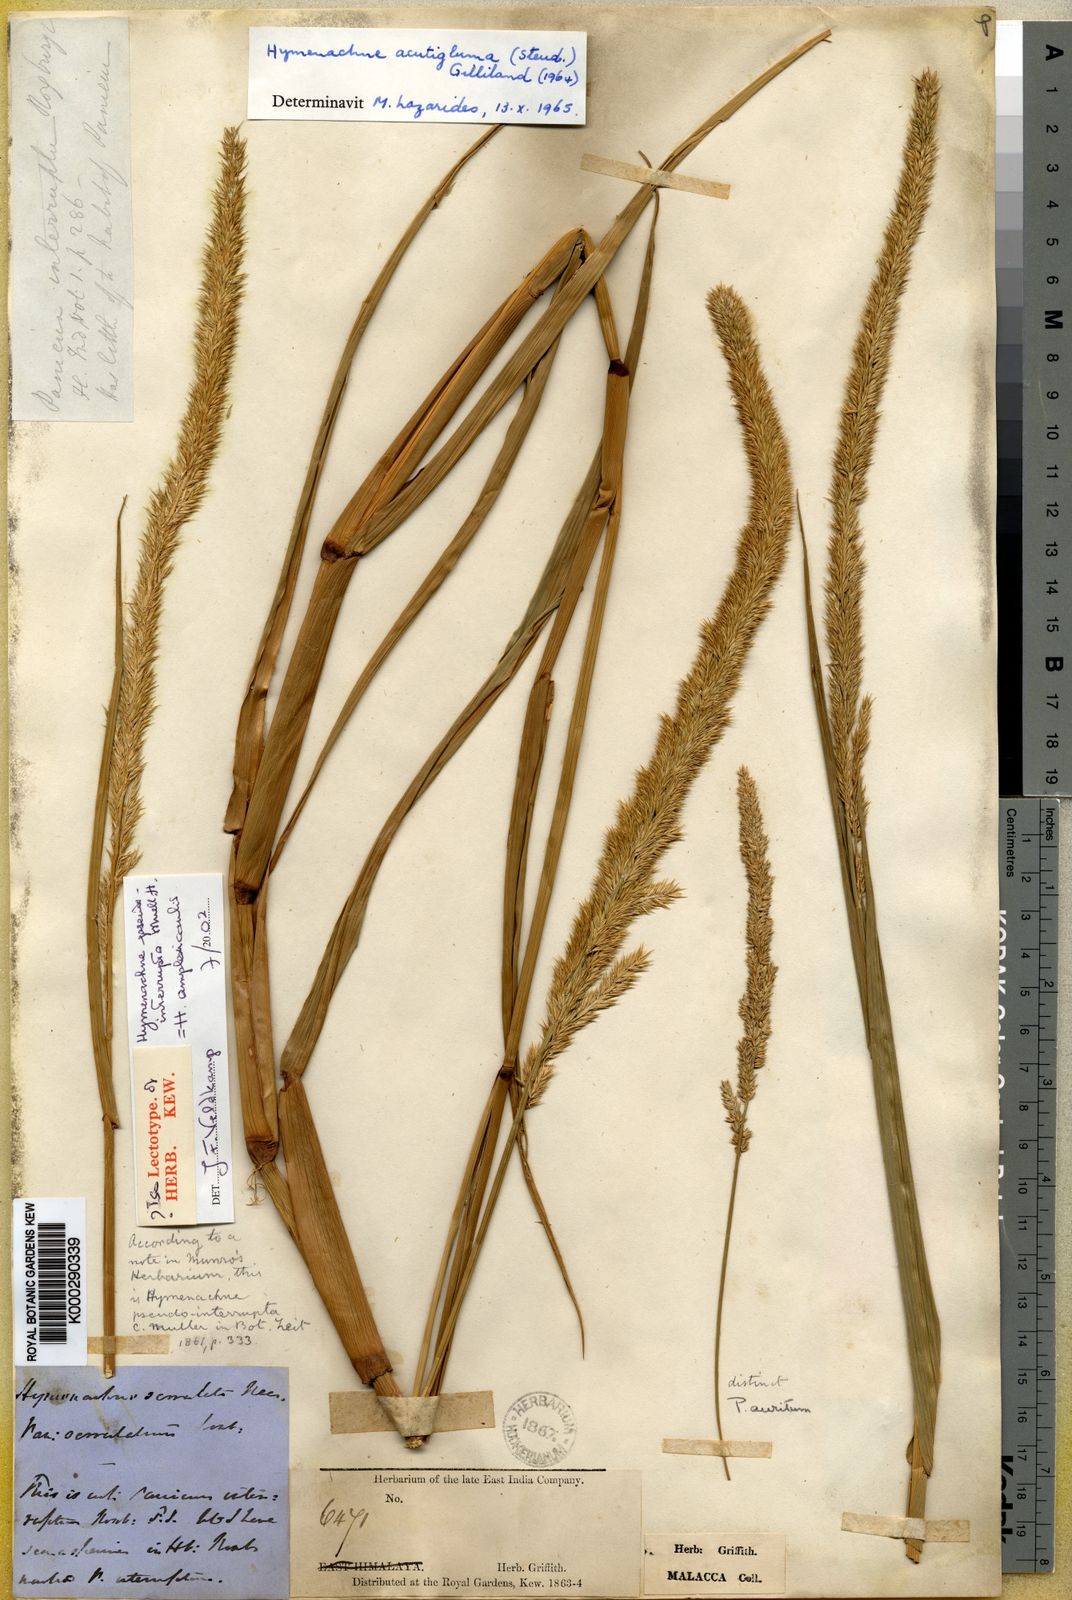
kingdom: Plantae
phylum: Tracheophyta
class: Liliopsida
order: Poales
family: Poaceae
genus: Hymenachne
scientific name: Hymenachne amplexicaulis
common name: Olive hymenachne
